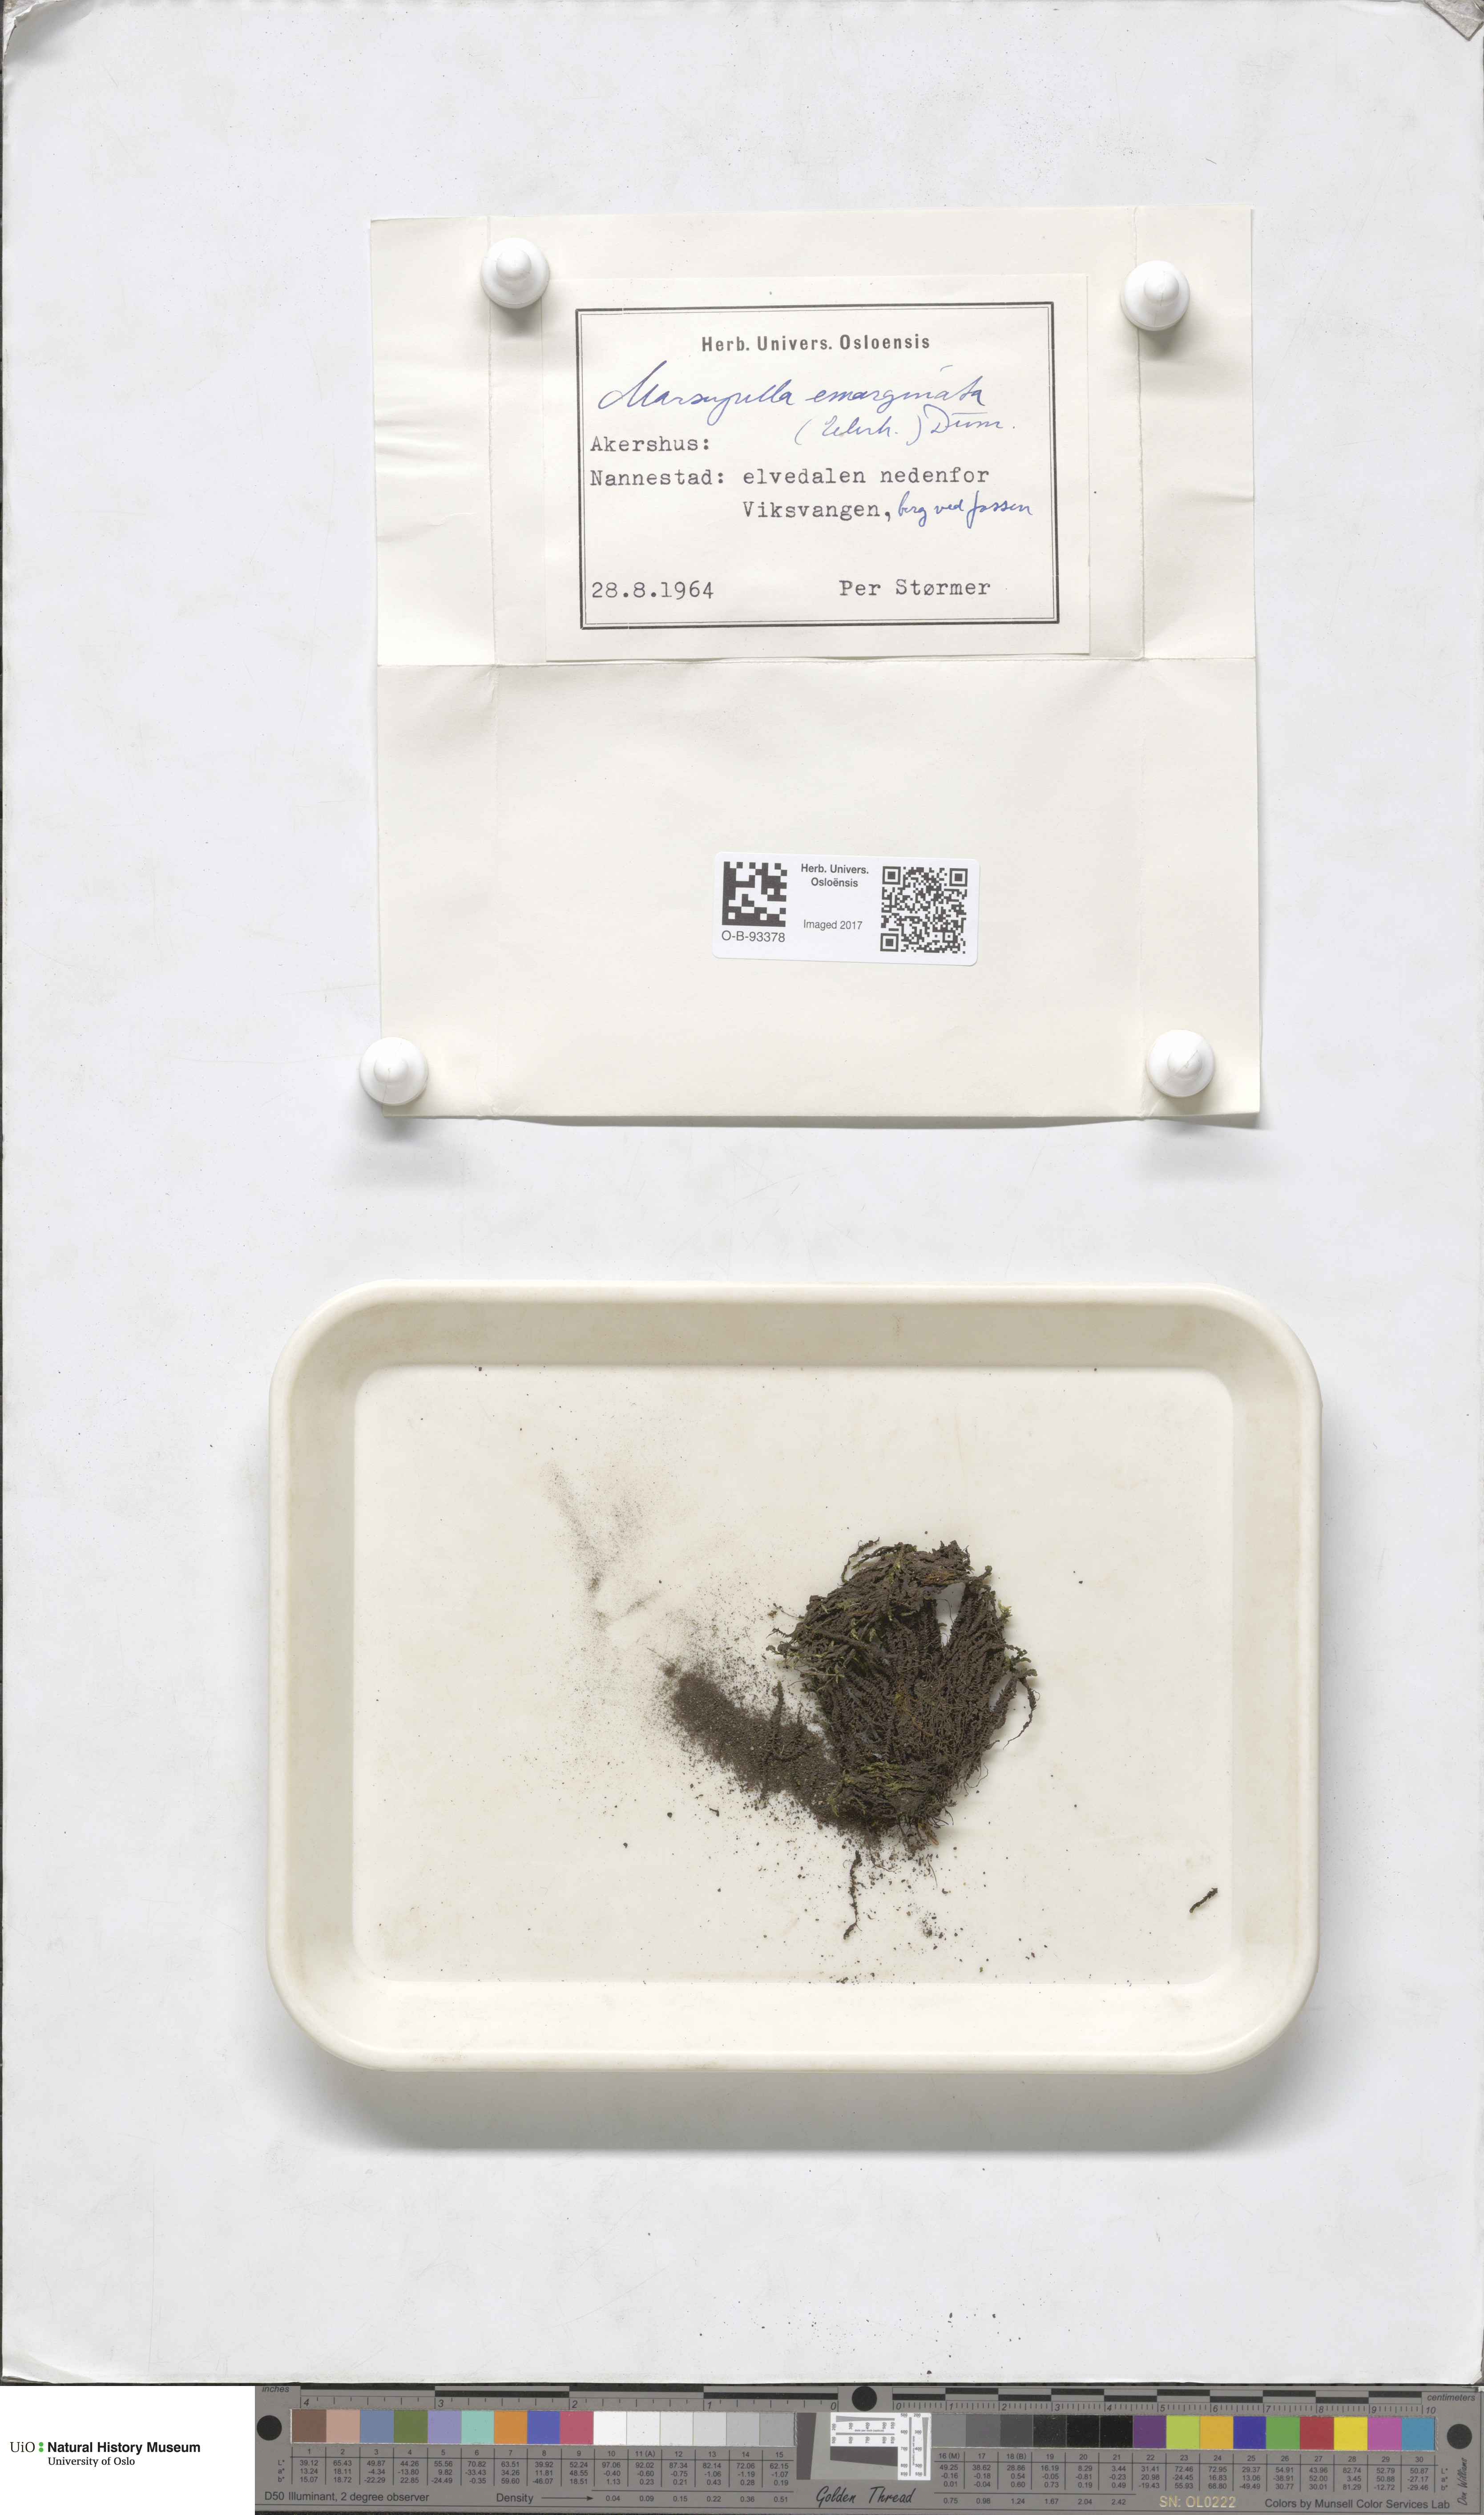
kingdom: Plantae
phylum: Marchantiophyta
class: Jungermanniopsida
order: Jungermanniales
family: Gymnomitriaceae
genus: Marsupella
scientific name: Marsupella emarginata
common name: Notched rustwort
